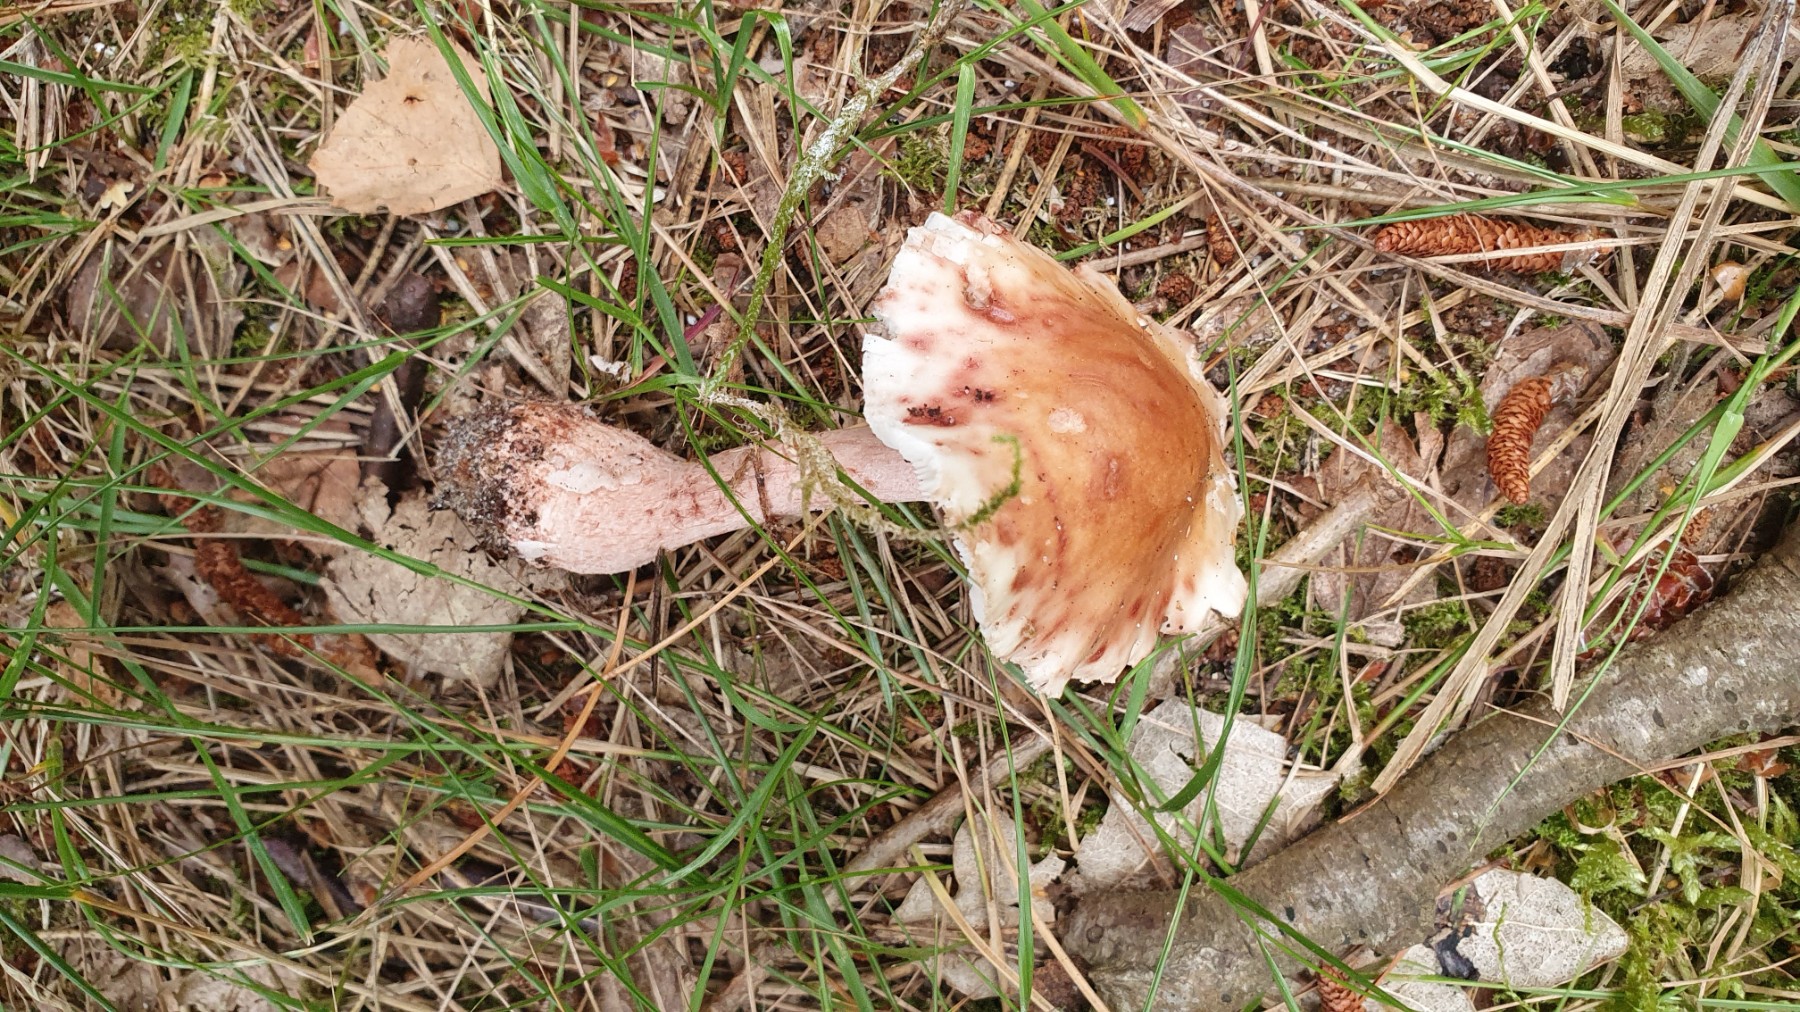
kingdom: Fungi
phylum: Basidiomycota
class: Agaricomycetes
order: Agaricales
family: Amanitaceae
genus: Amanita
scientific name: Amanita rubescens
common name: rødmende fluesvamp
